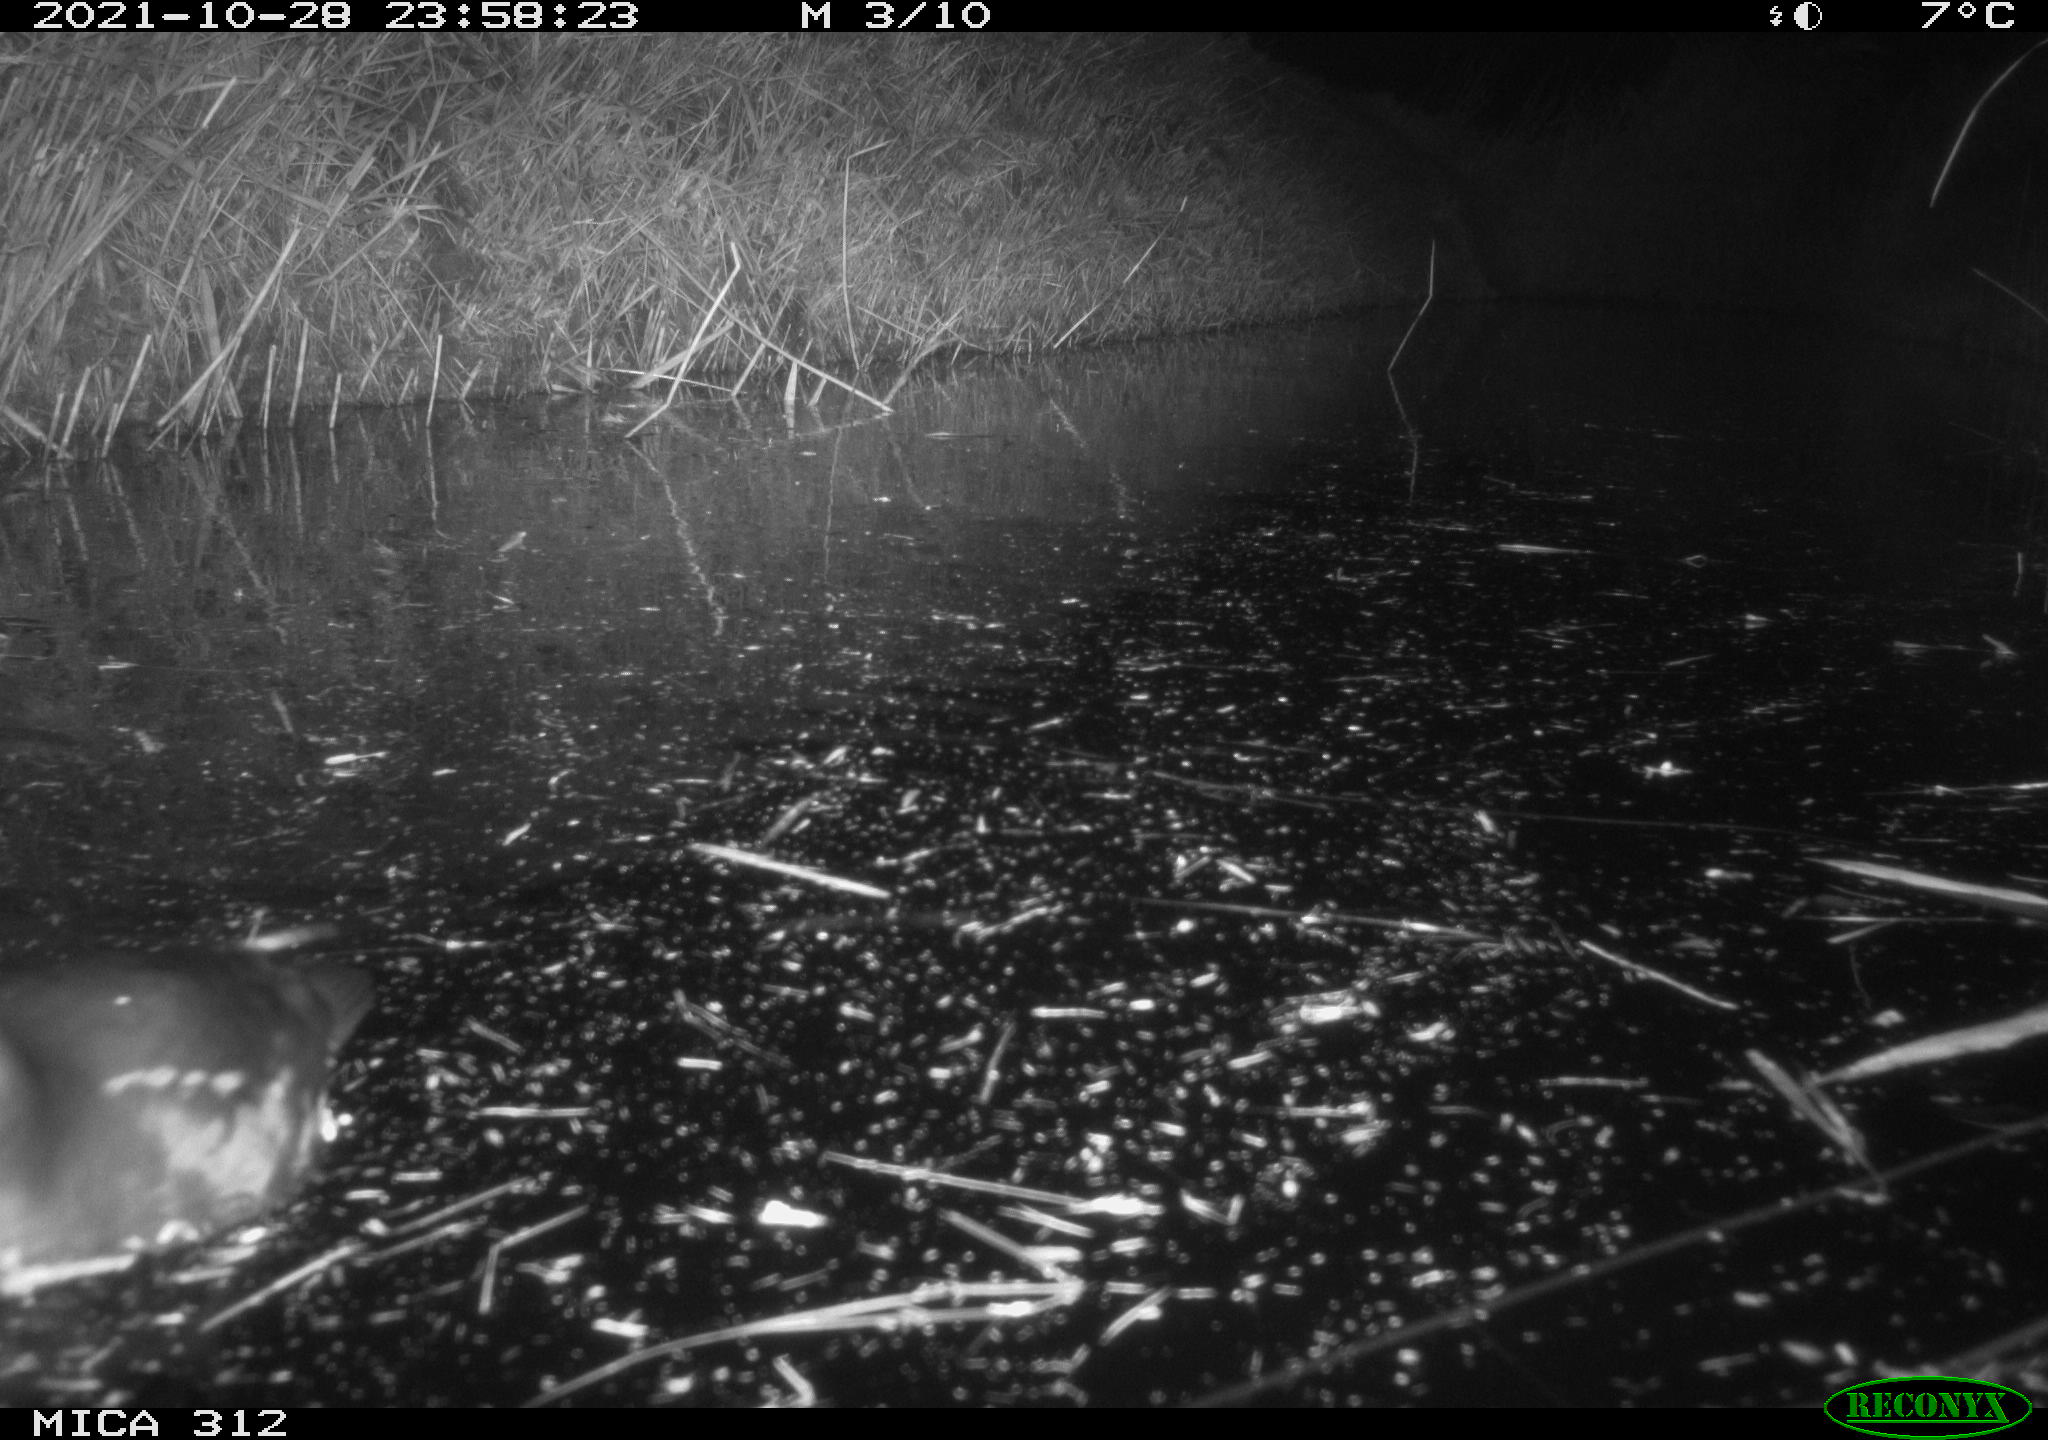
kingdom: Animalia
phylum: Chordata
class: Aves
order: Gruiformes
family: Rallidae
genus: Fulica
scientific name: Fulica atra
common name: Eurasian coot
